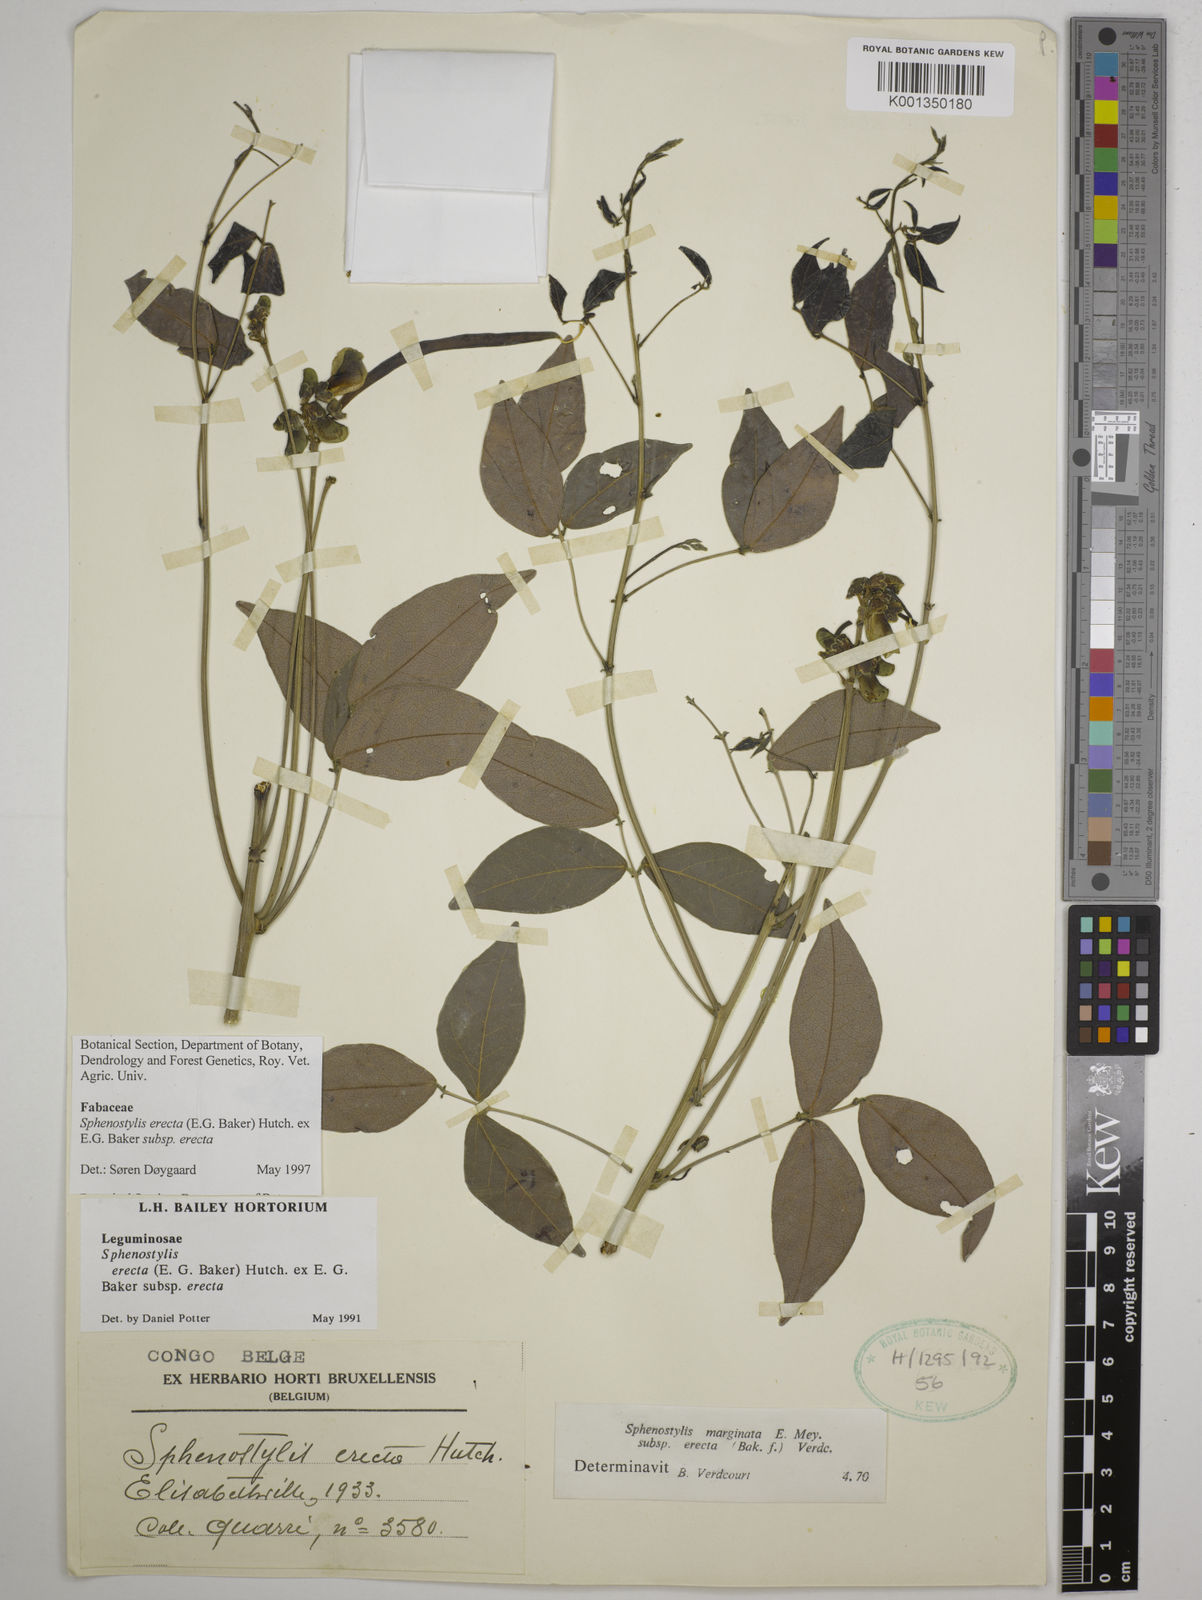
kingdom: Plantae
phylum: Tracheophyta
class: Magnoliopsida
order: Fabales
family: Fabaceae
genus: Sphenostylis
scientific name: Sphenostylis erecta
